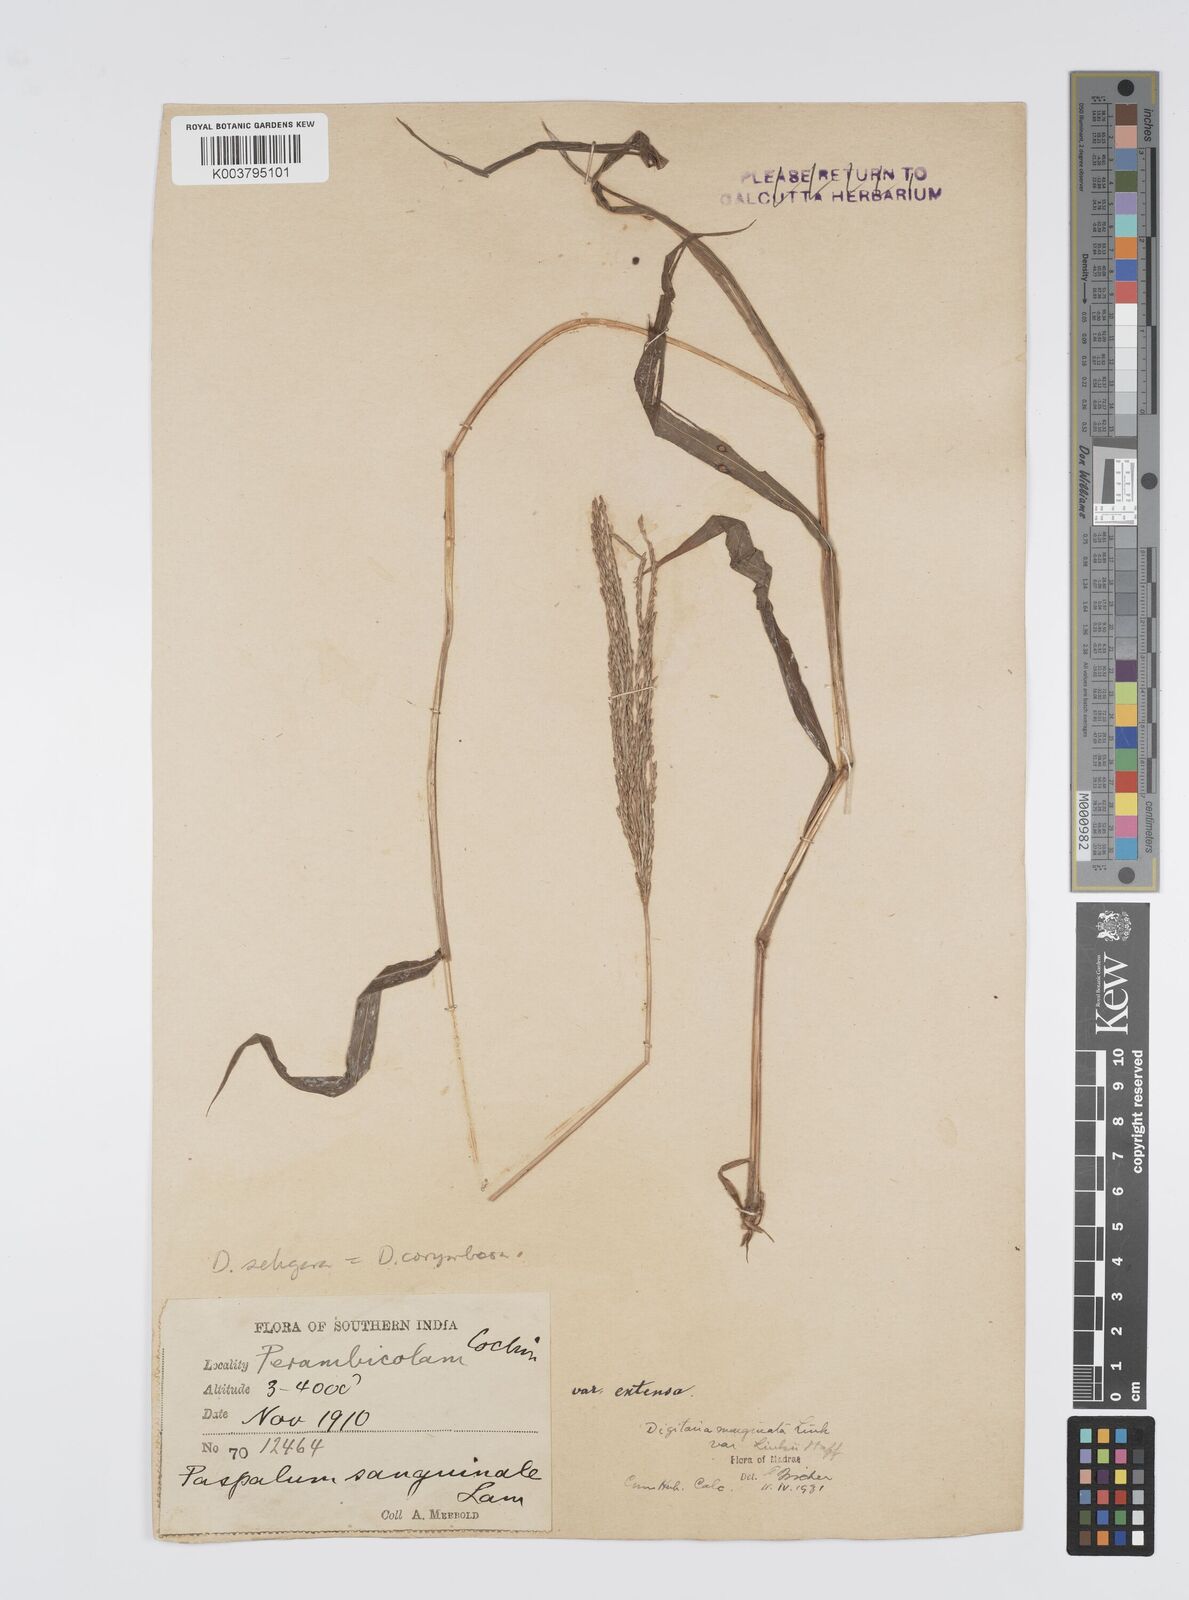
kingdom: Plantae
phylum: Tracheophyta
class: Liliopsida
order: Poales
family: Poaceae
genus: Digitaria
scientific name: Digitaria setigera
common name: East indian crabgrass
